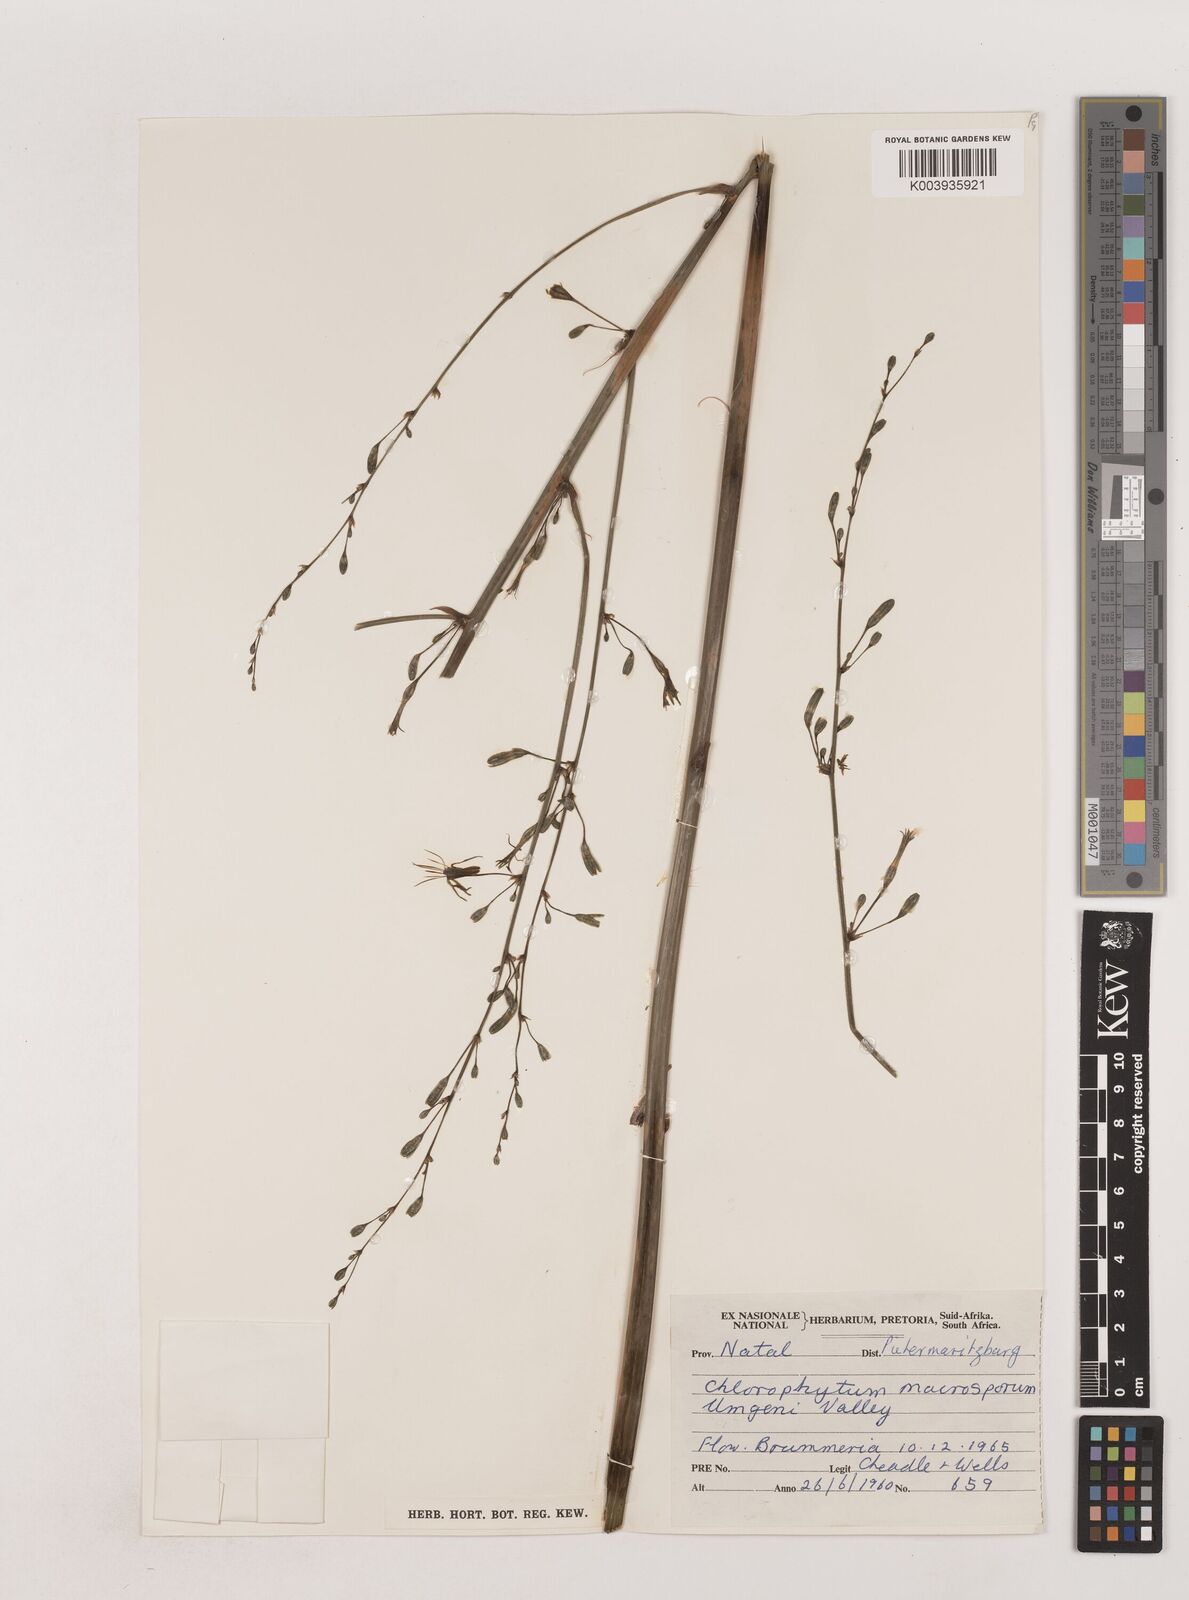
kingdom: Plantae
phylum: Tracheophyta
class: Liliopsida
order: Asparagales
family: Asparagaceae
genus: Chlorophytum
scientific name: Chlorophytum macrosporum
